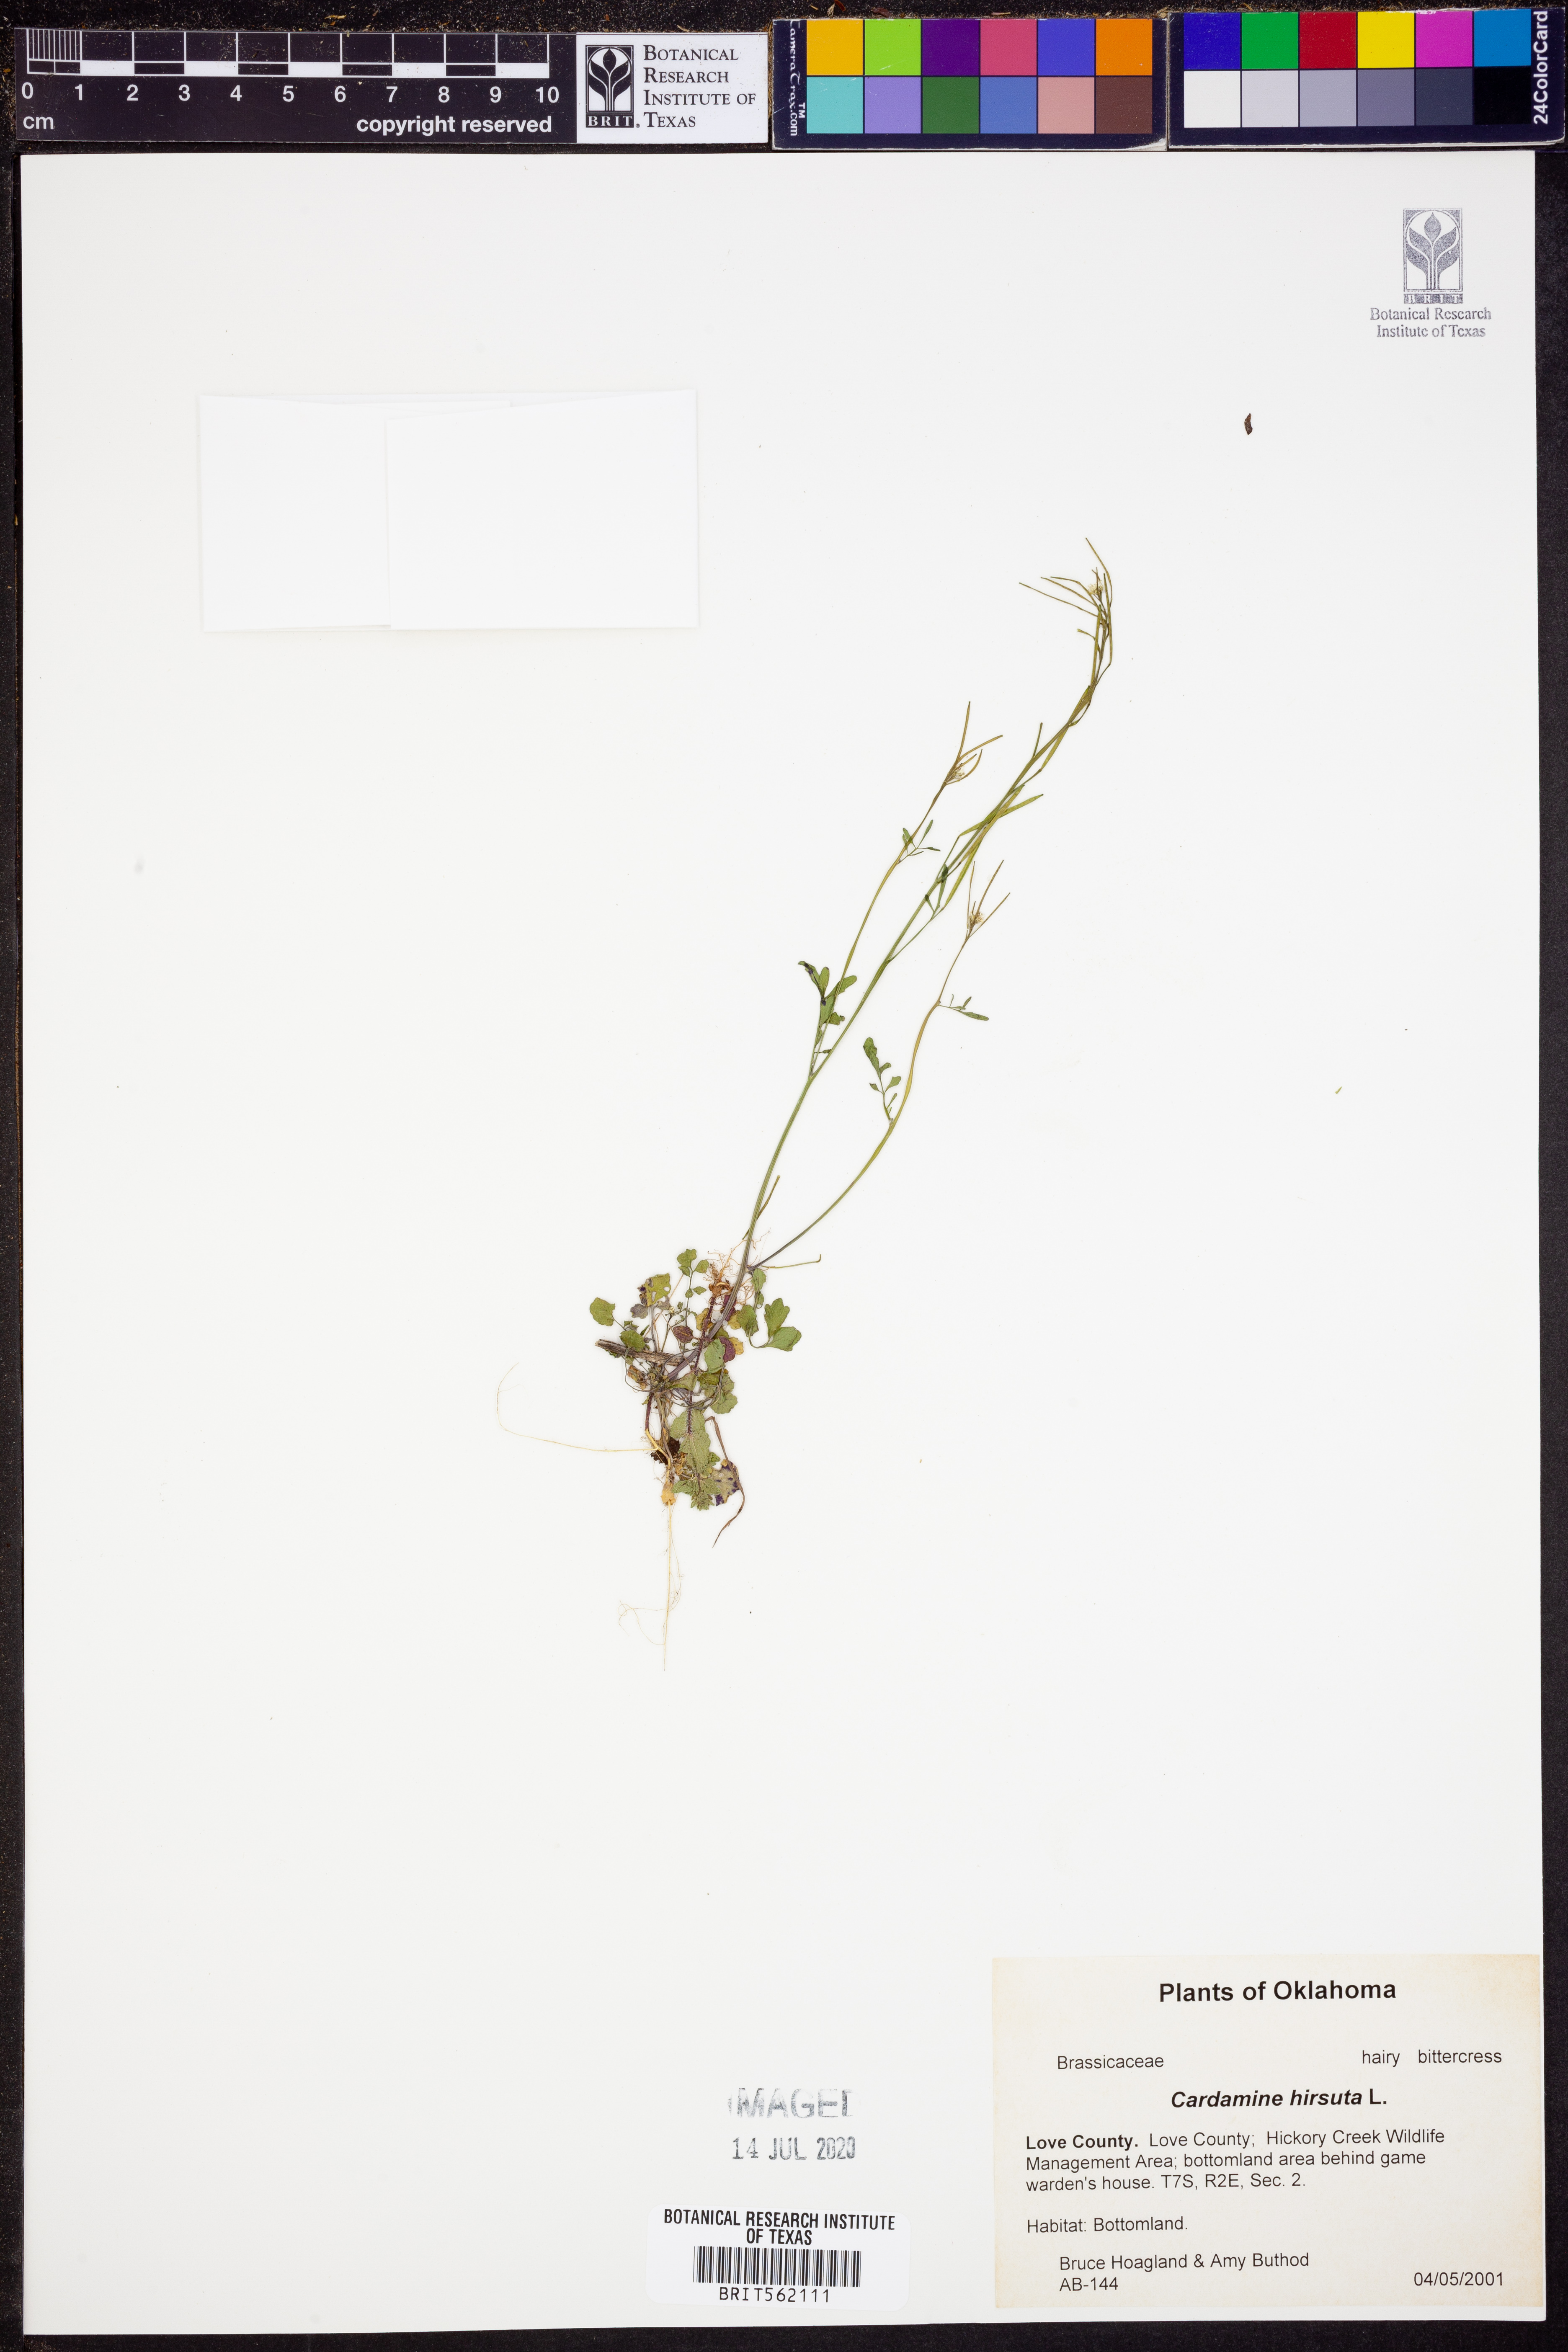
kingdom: Plantae
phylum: Tracheophyta
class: Magnoliopsida
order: Brassicales
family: Brassicaceae
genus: Cardamine
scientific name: Cardamine hirsuta
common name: Hairy bittercress
